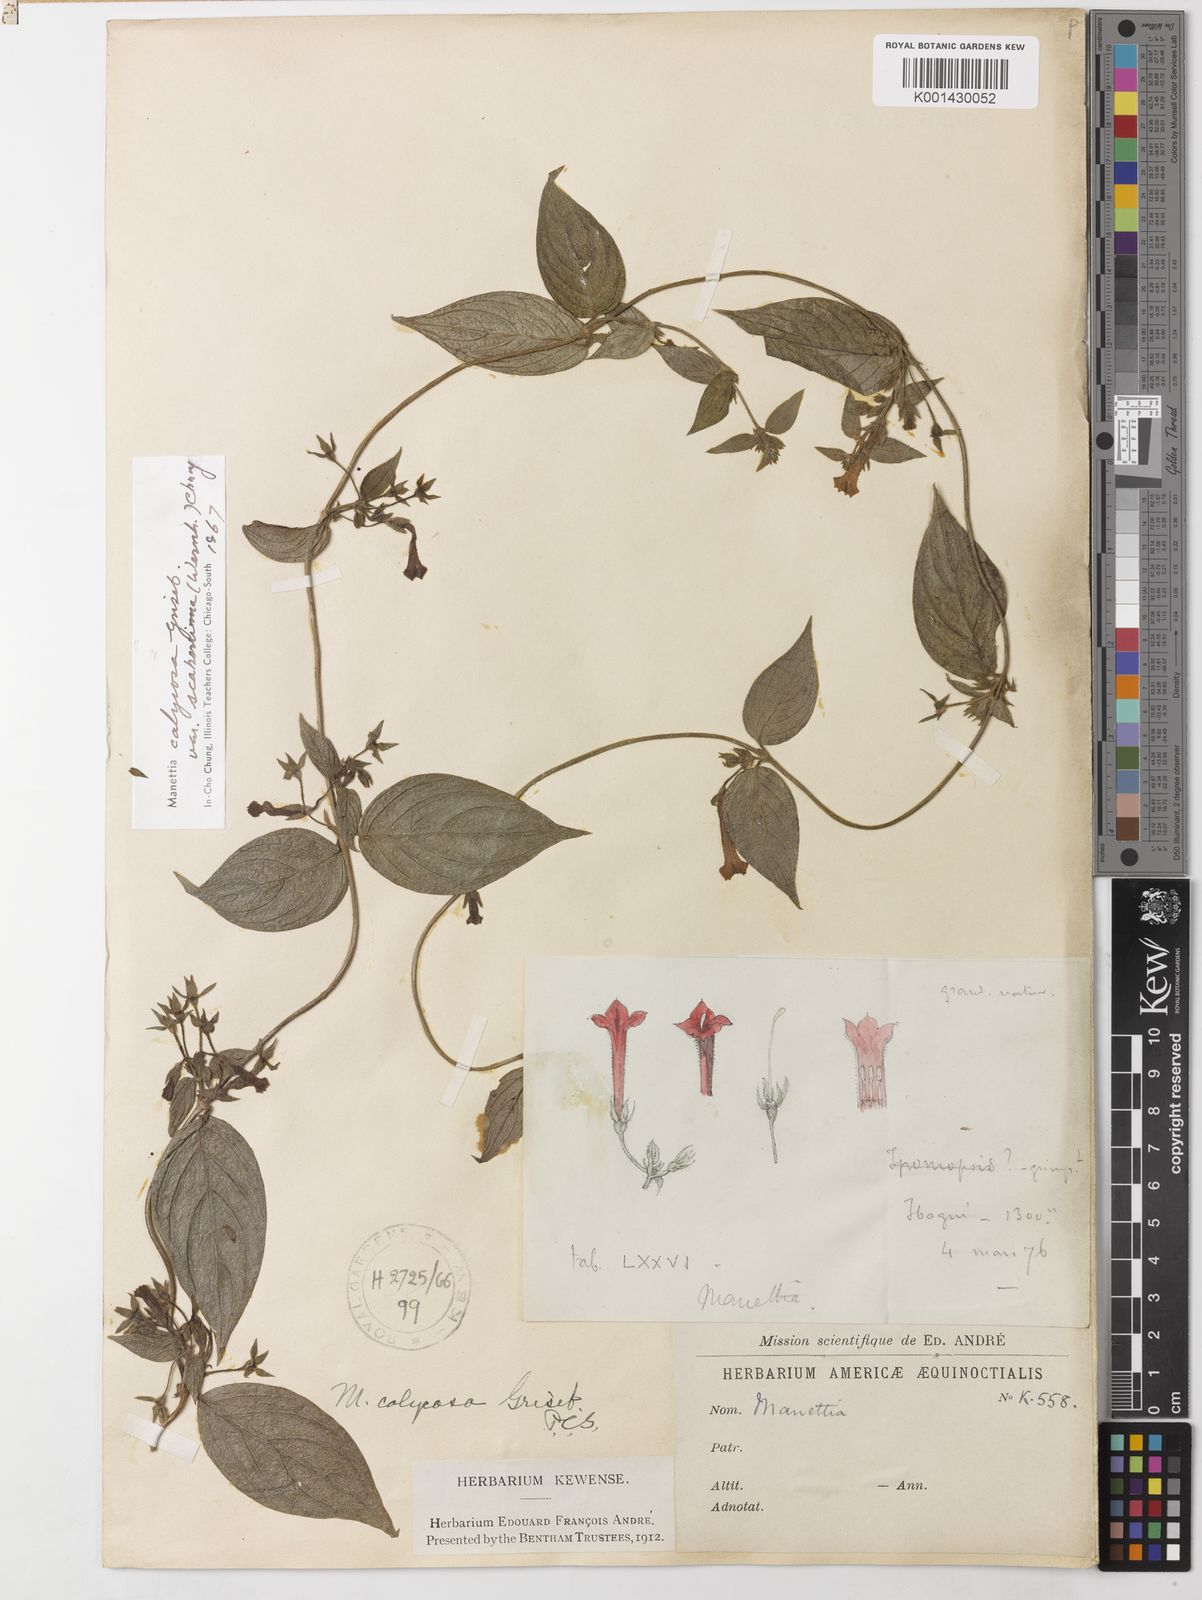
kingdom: Plantae
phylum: Tracheophyta
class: Magnoliopsida
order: Gentianales
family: Rubiaceae
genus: Manettia
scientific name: Manettia calycosa
